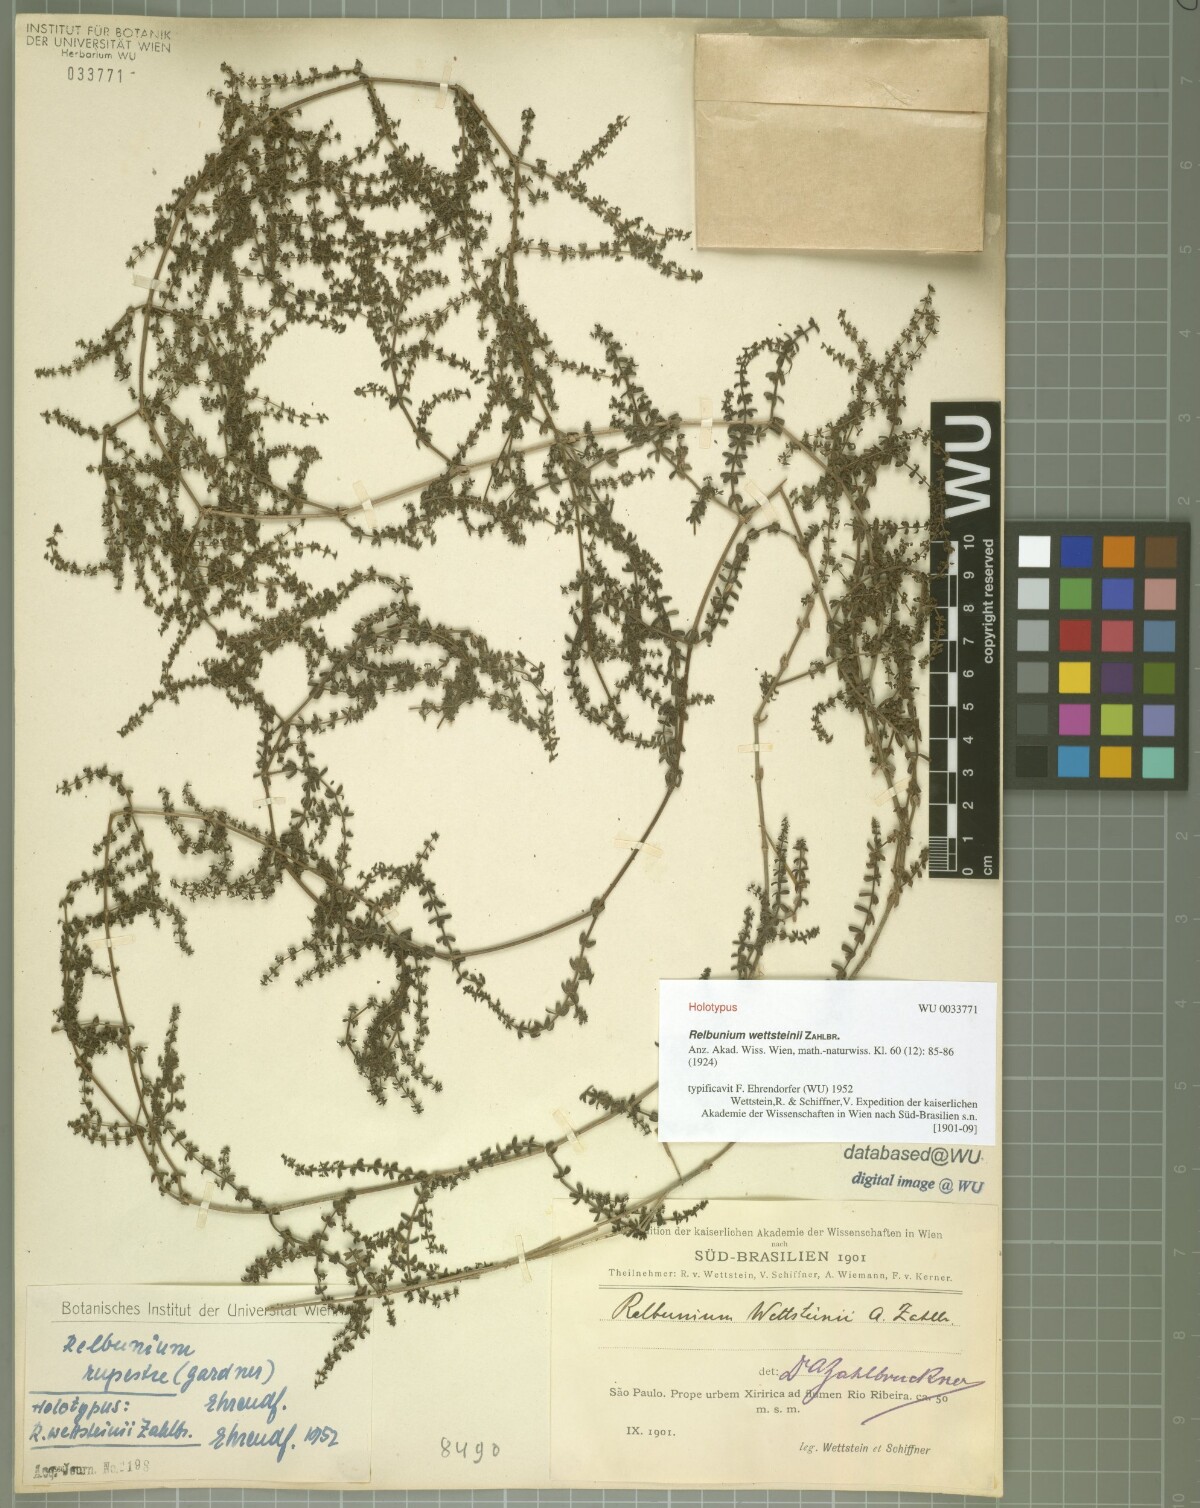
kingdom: Plantae
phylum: Tracheophyta
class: Magnoliopsida
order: Gentianales
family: Rubiaceae
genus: Galium
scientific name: Galium hypocarpium
